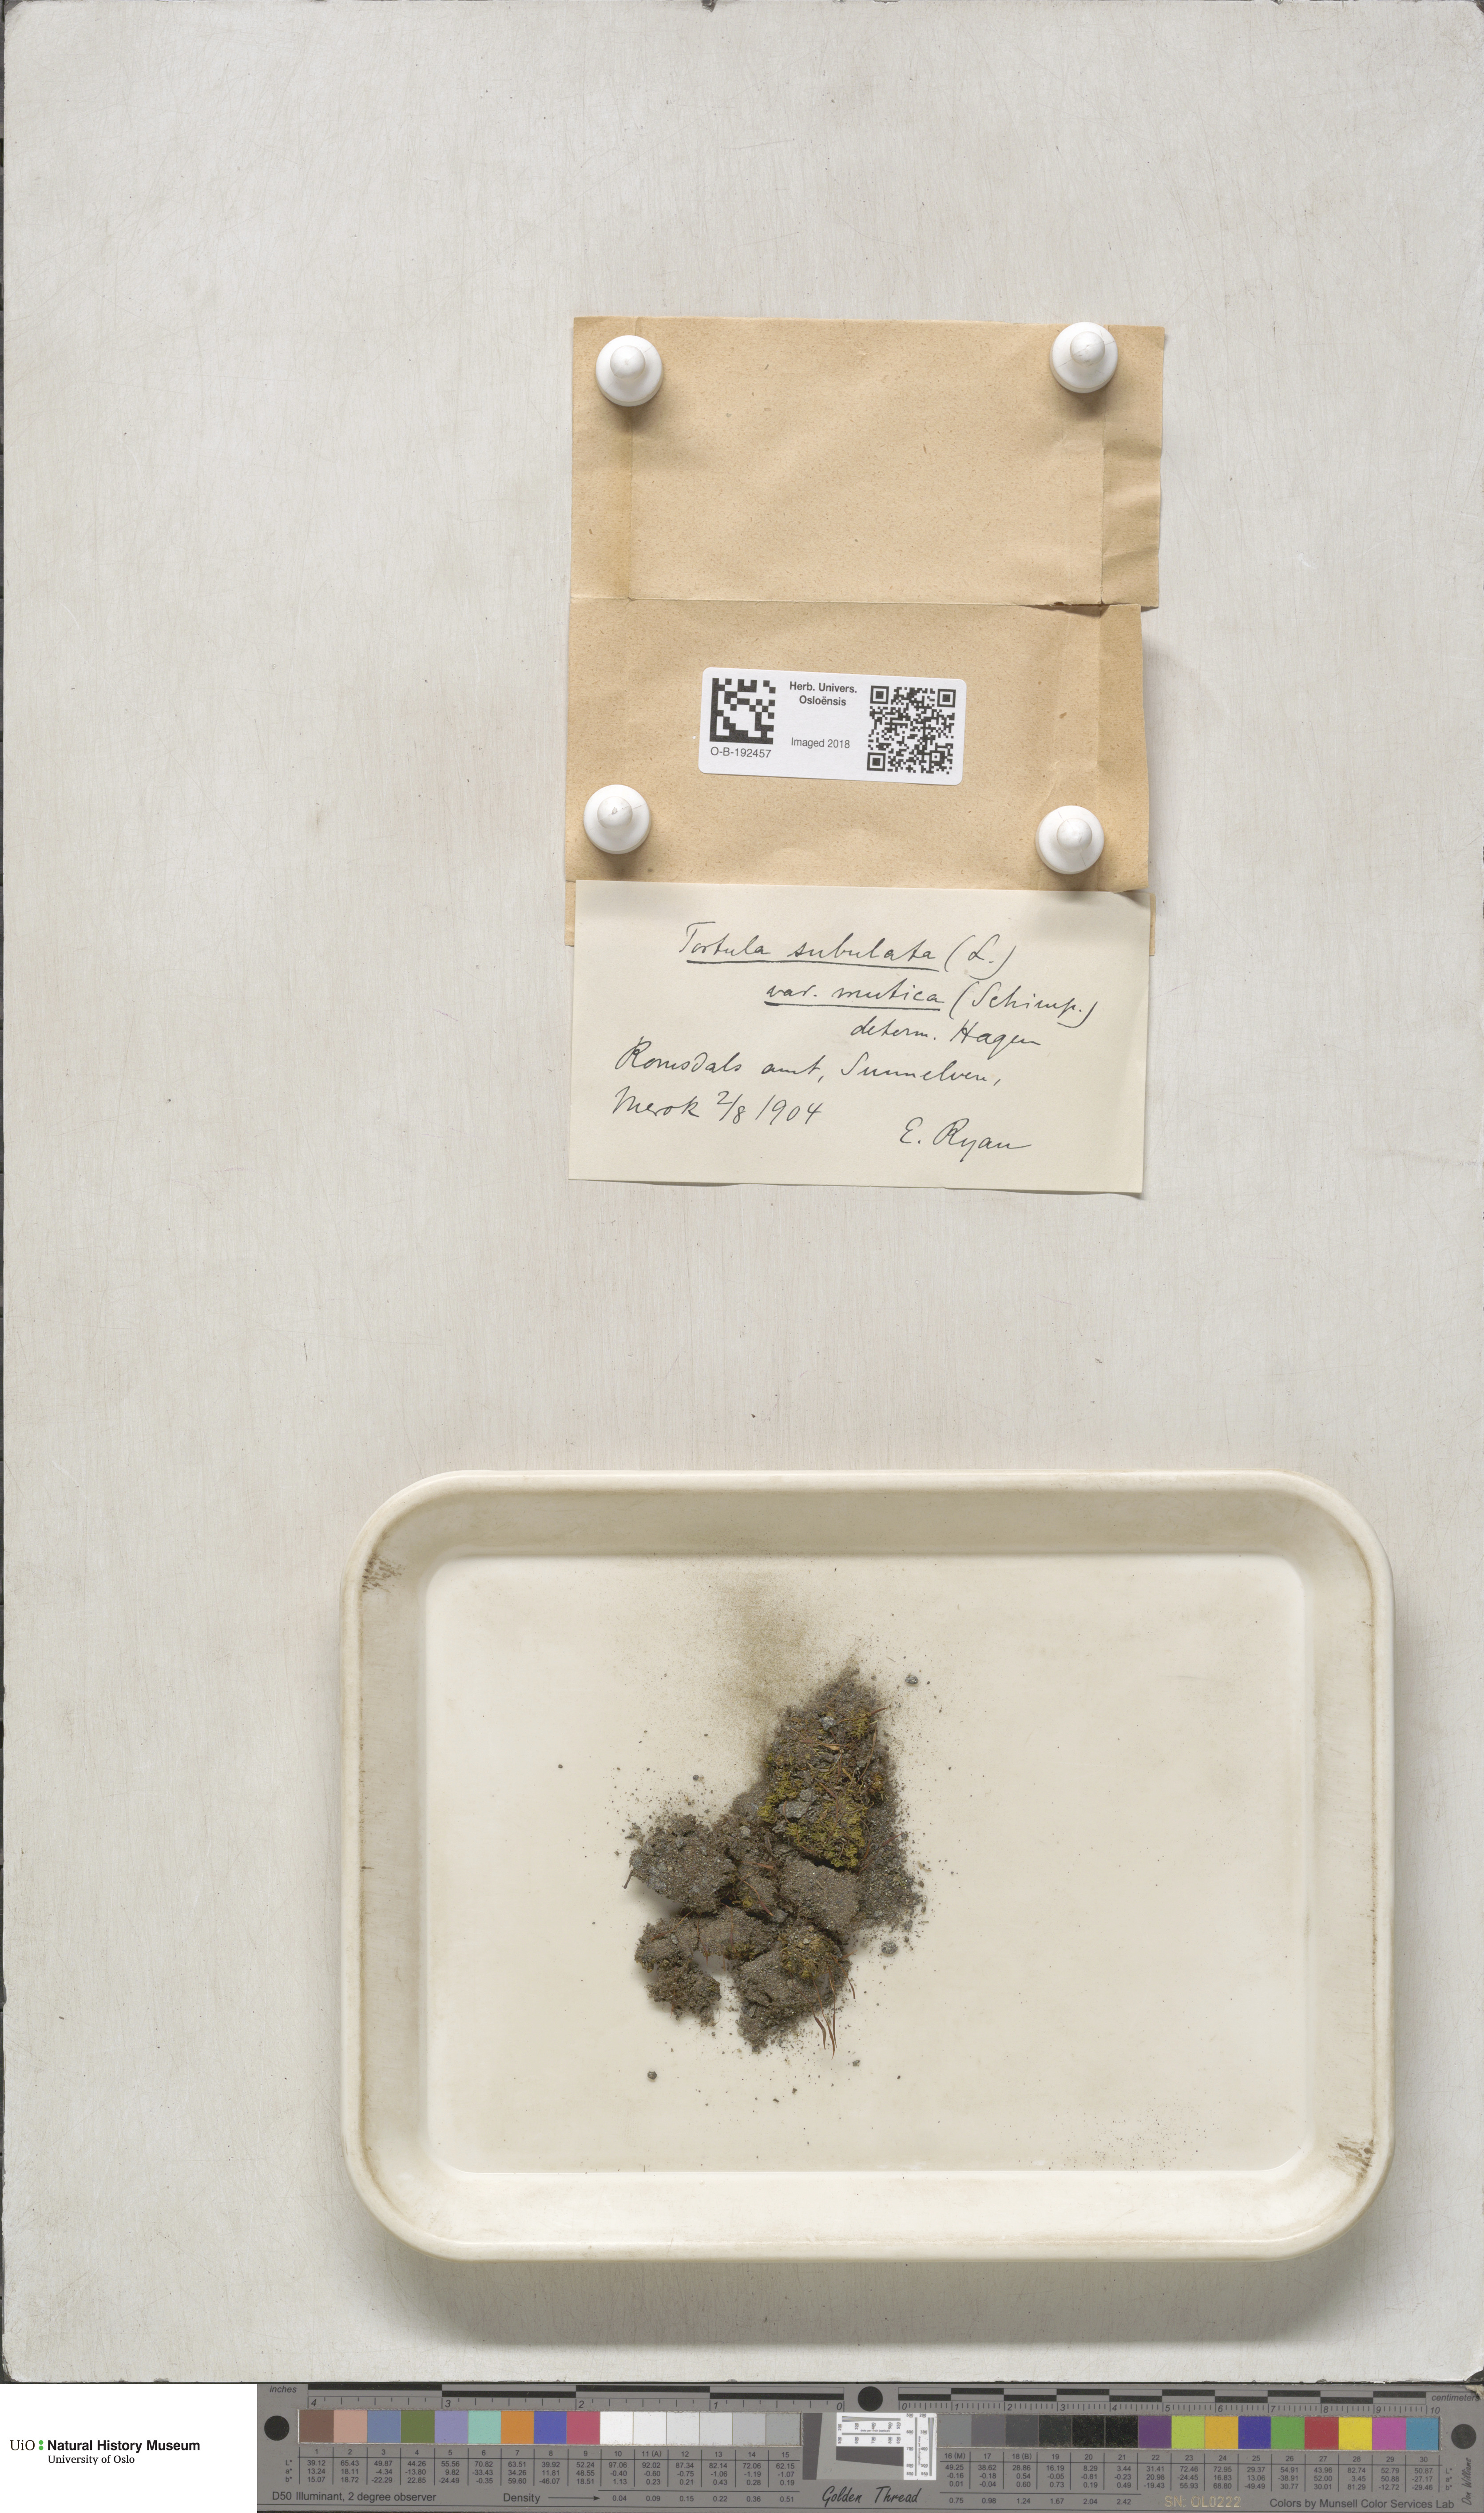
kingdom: Plantae
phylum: Bryophyta
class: Bryopsida
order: Pottiales
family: Pottiaceae
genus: Tortula
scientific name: Tortula subulata
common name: Upright screw-moss
